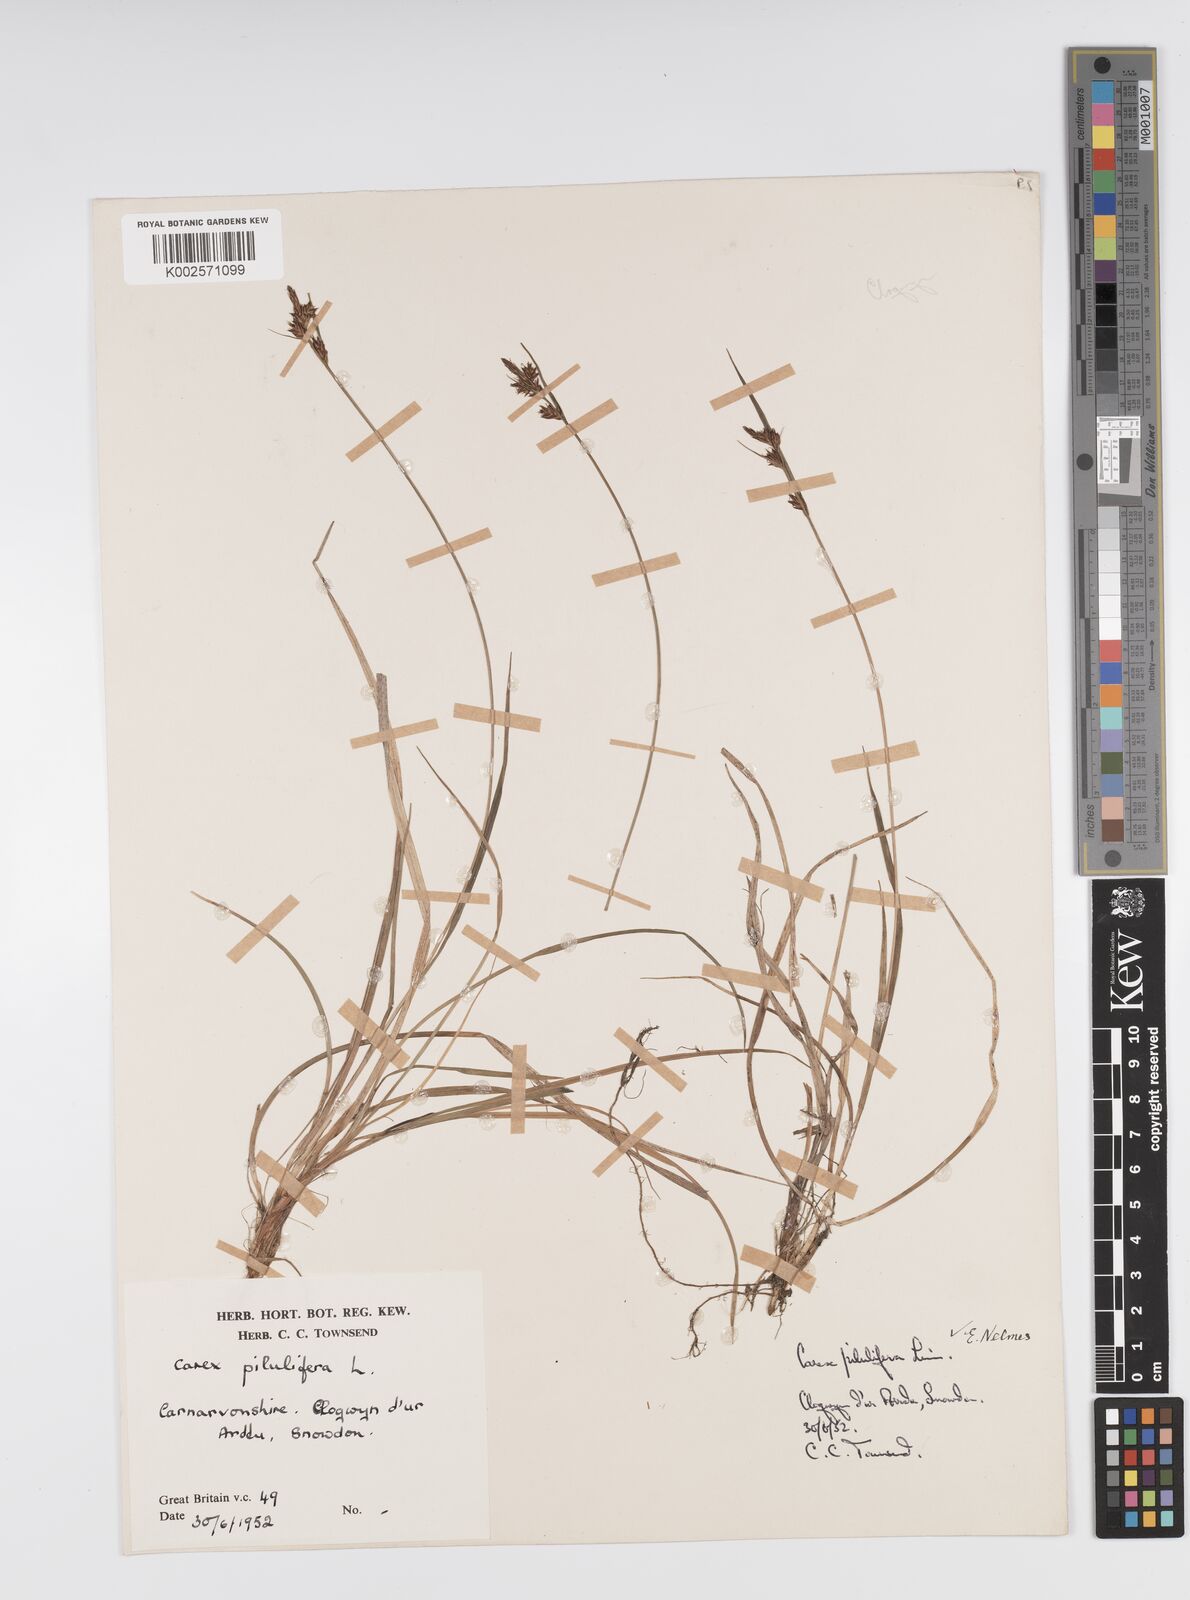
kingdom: Plantae
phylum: Tracheophyta
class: Liliopsida
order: Poales
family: Cyperaceae
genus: Carex
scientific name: Carex pilulifera
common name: Pill sedge
